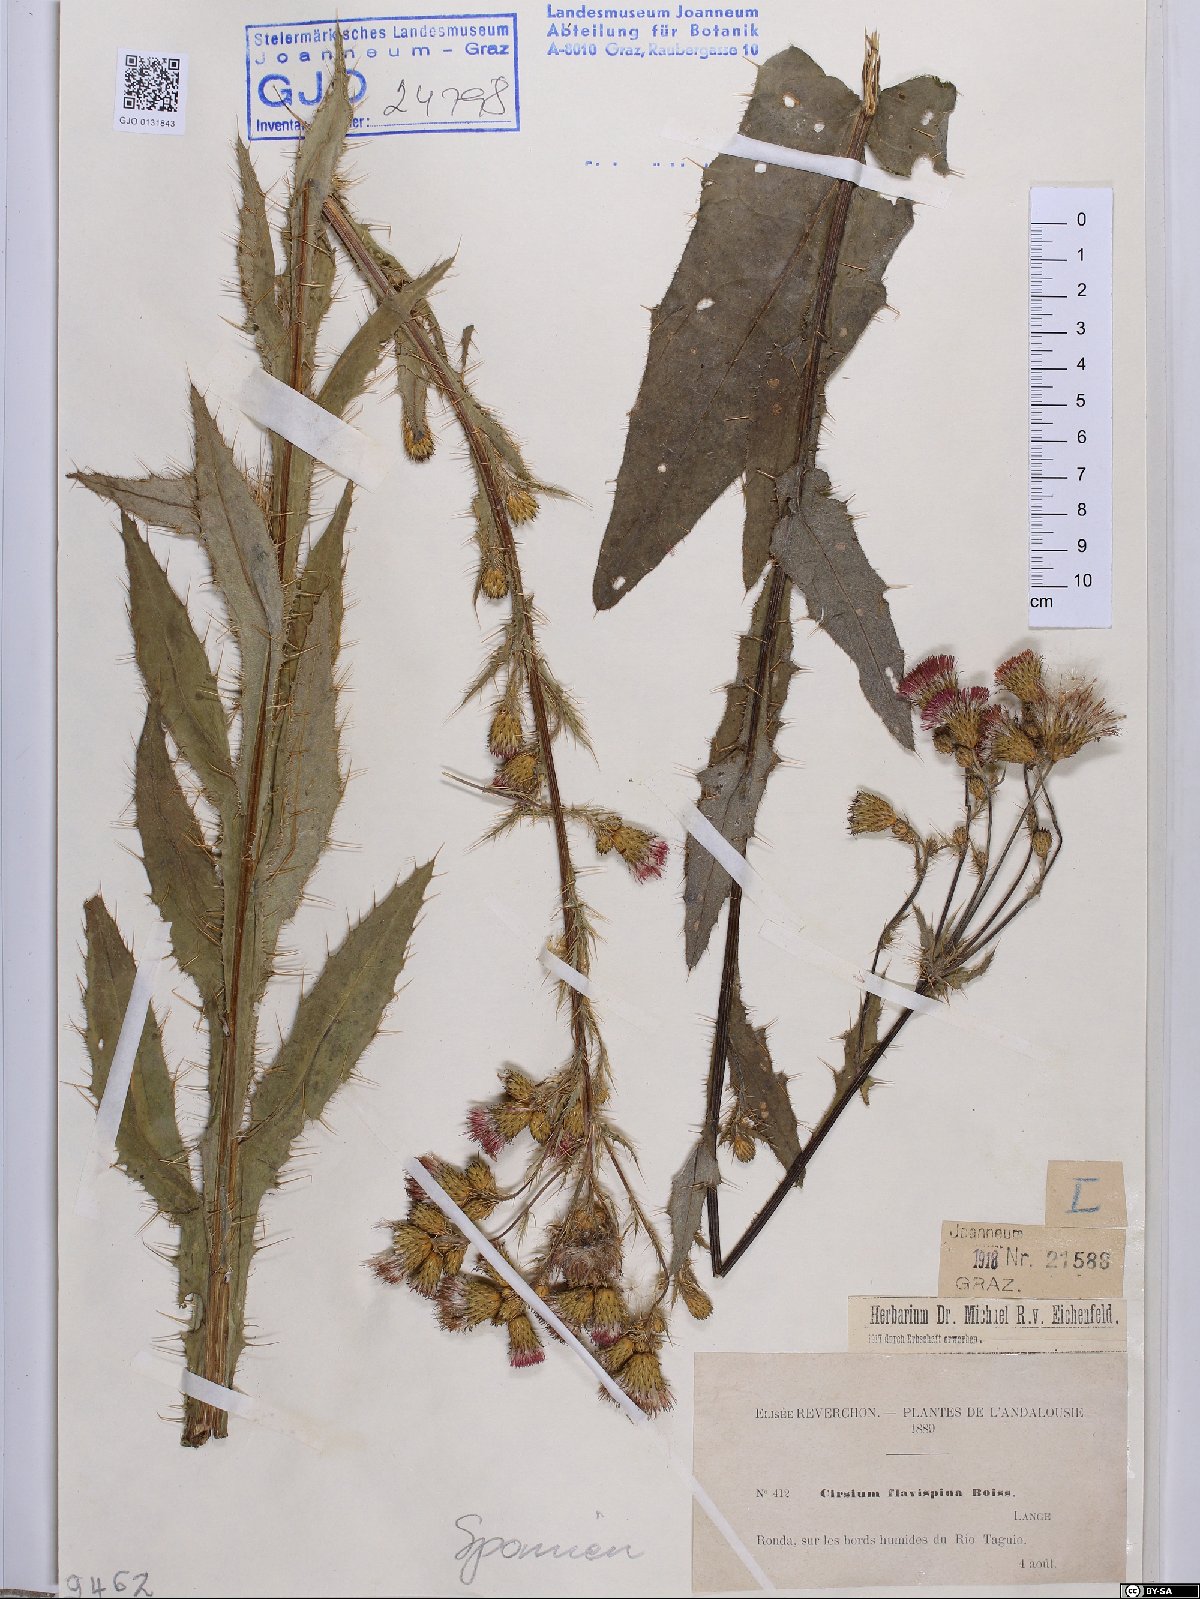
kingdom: Plantae
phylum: Tracheophyta
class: Magnoliopsida
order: Asterales
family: Asteraceae
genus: Cirsium
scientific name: Cirsium pyrenaicum
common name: Pyrenean thistle
